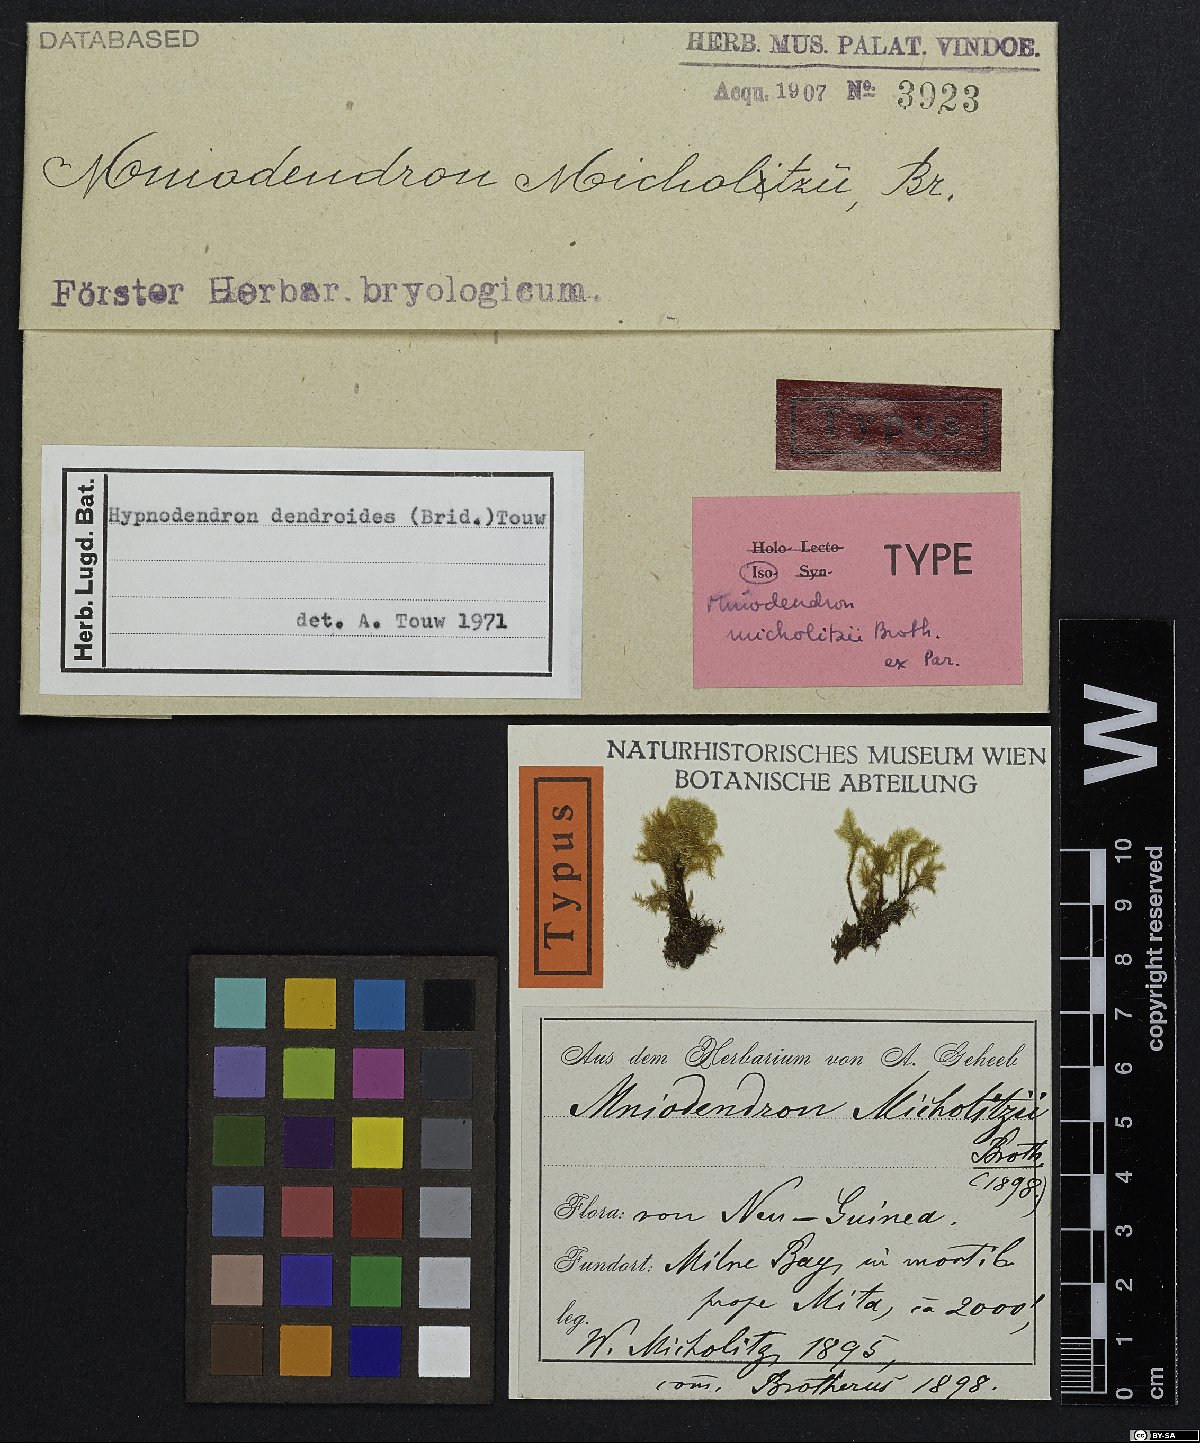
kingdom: Plantae
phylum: Bryophyta
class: Bryopsida
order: Hypnodendrales
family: Spiridentaceae
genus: Mniodendron
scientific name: Mniodendron dendroides
